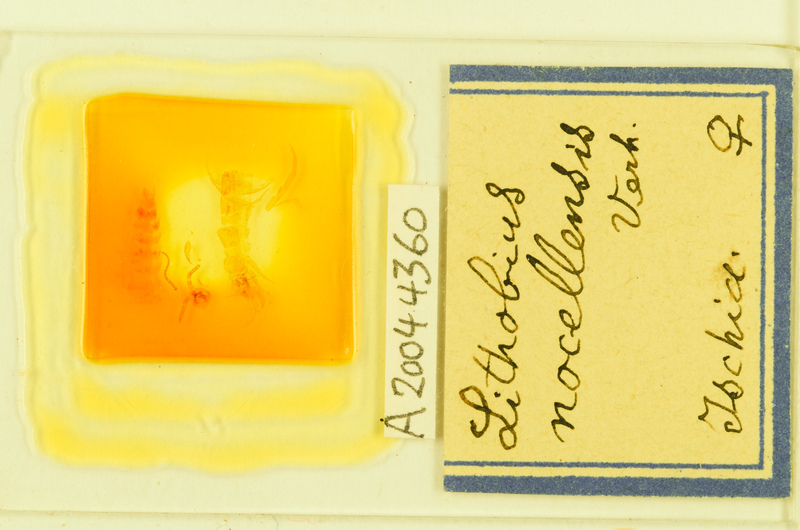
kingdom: Animalia
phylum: Arthropoda
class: Chilopoda
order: Lithobiomorpha
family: Lithobiidae
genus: Lithobius
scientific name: Lithobius nocellensis
